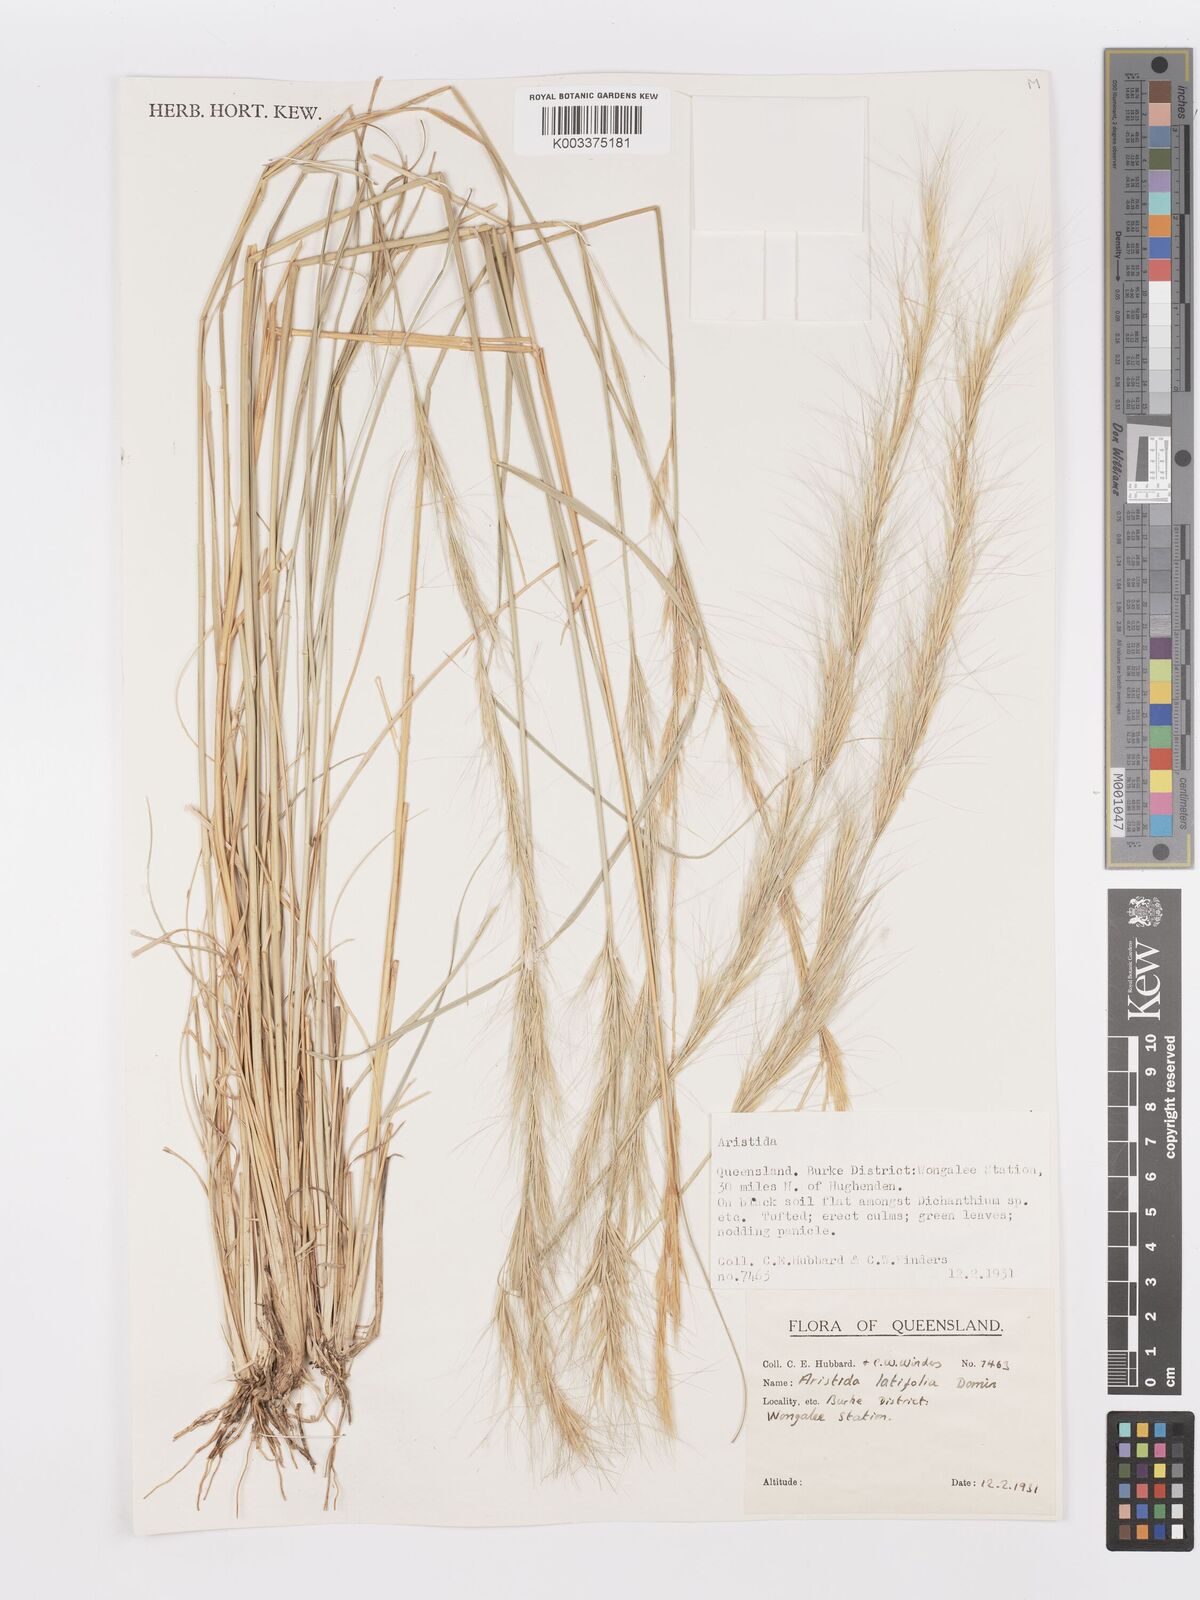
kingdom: Plantae
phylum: Tracheophyta
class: Liliopsida
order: Poales
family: Poaceae
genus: Aristida
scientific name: Aristida latifolia
